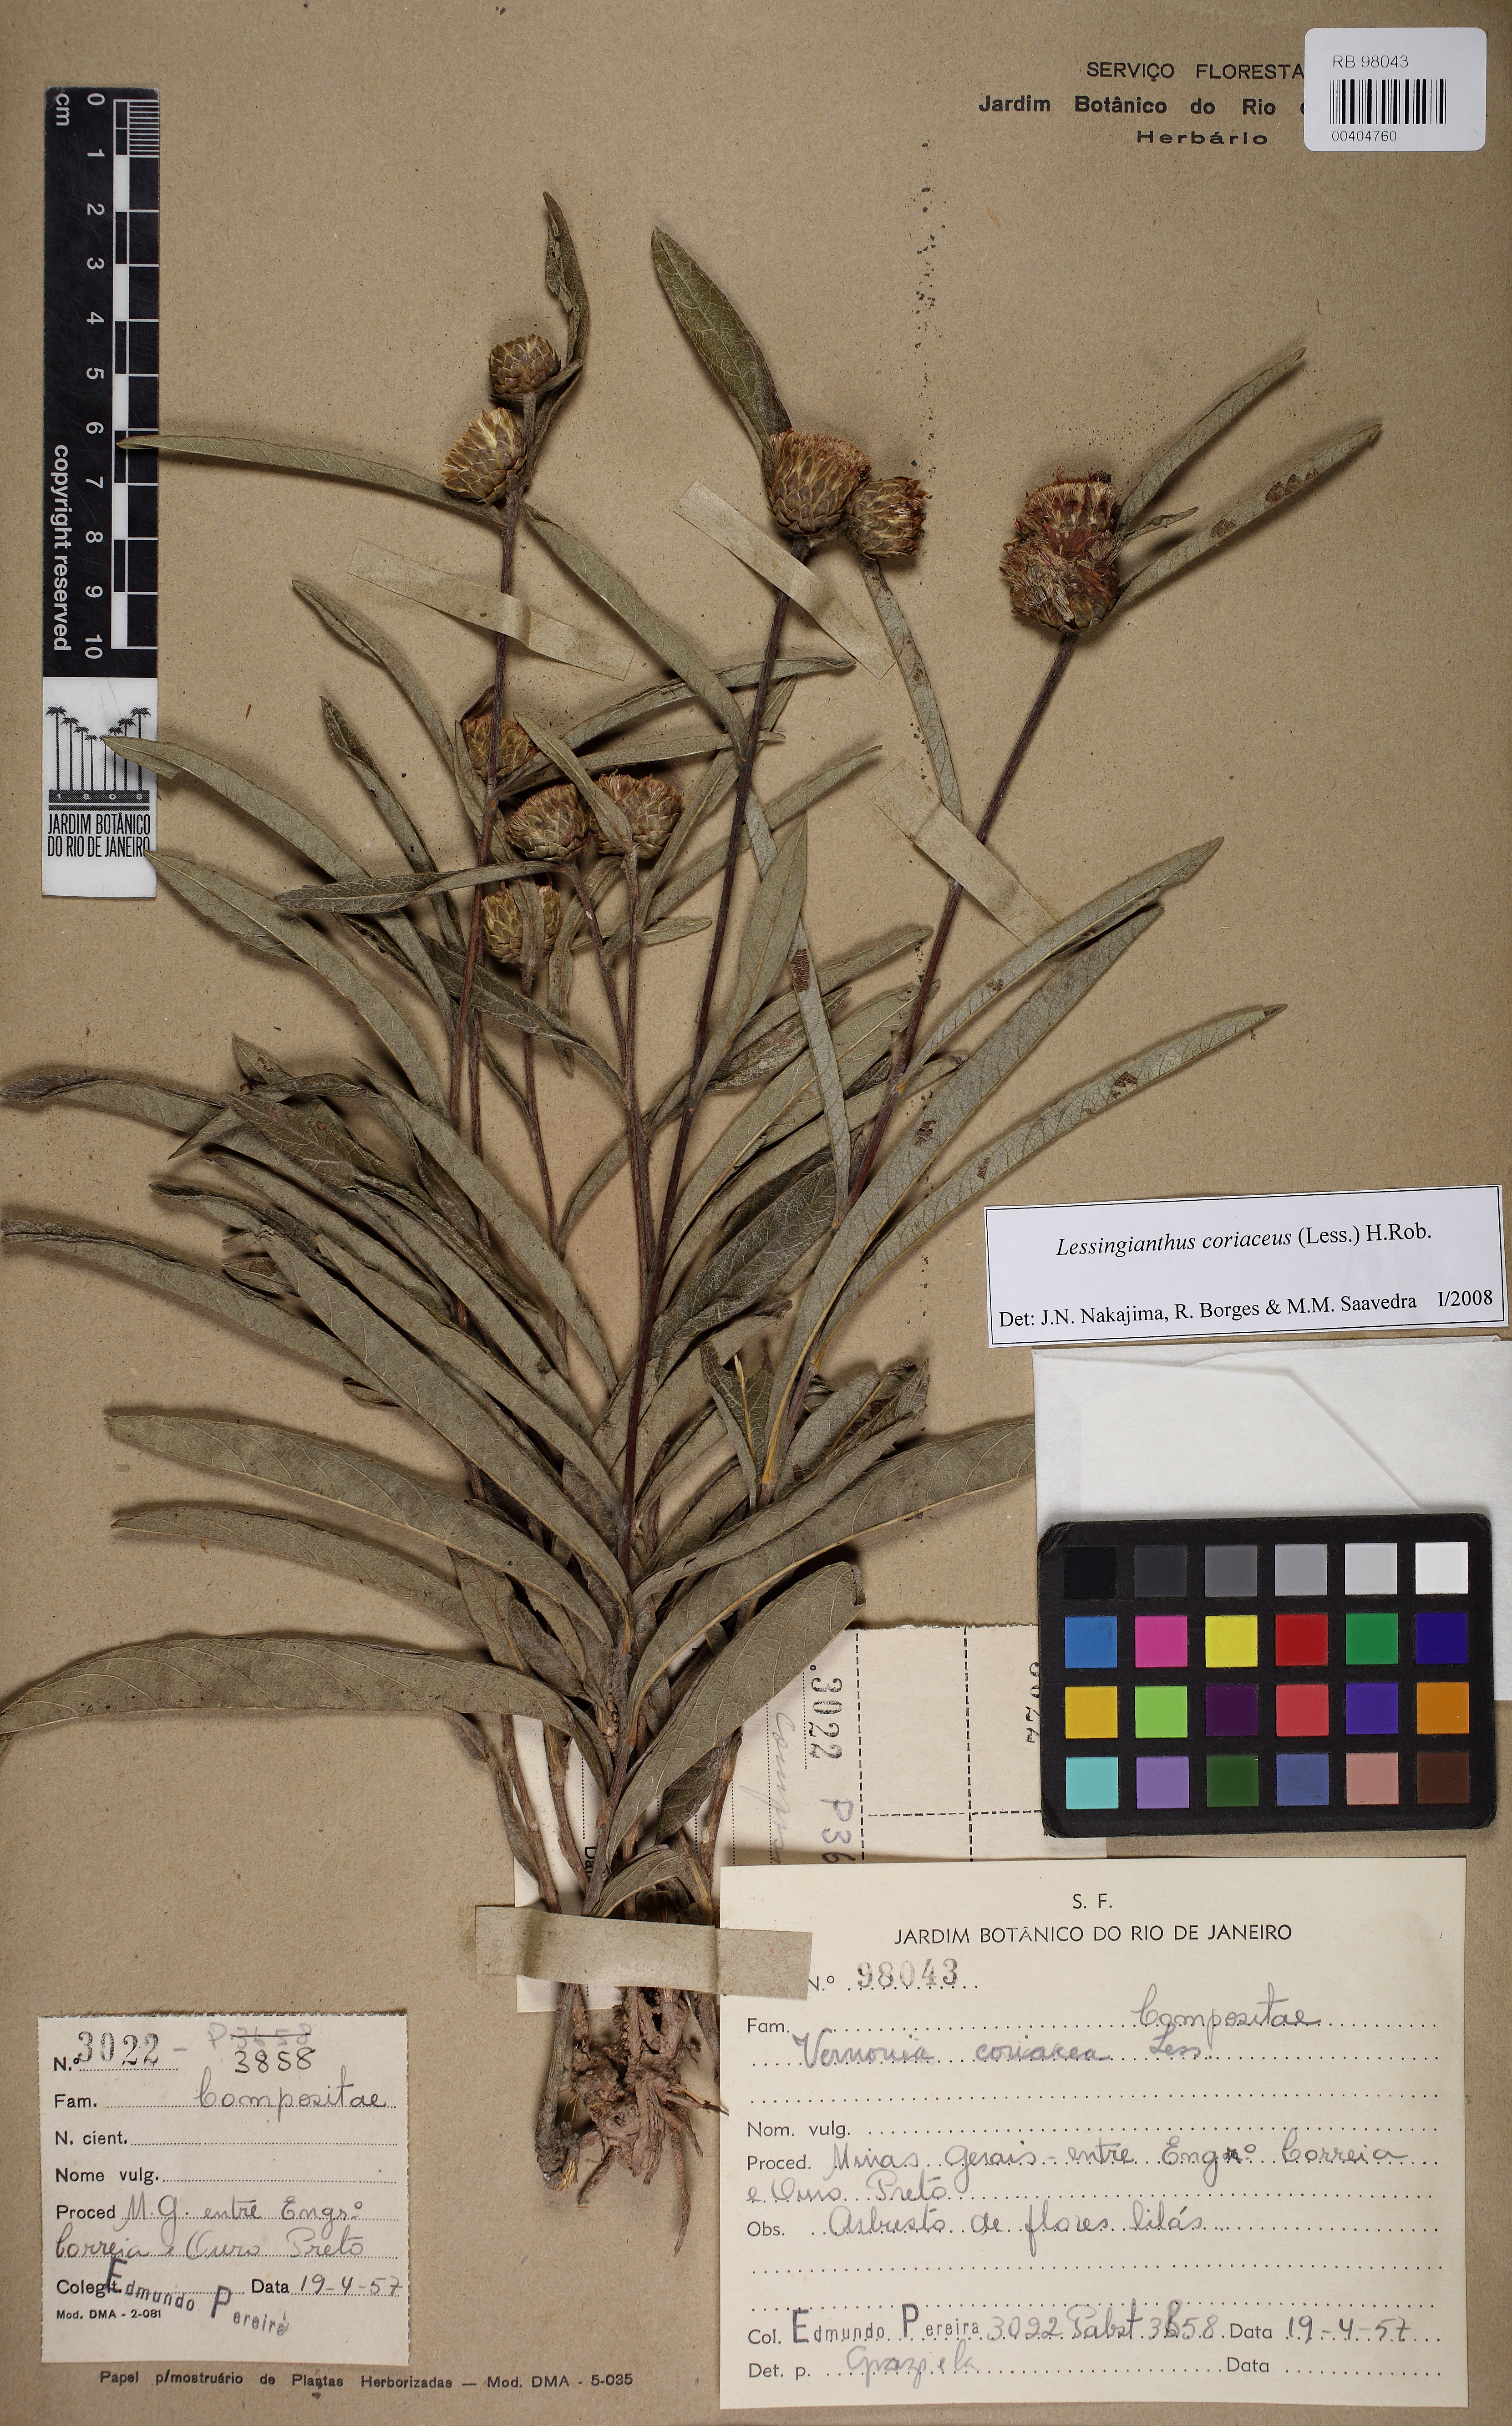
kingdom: Plantae
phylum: Tracheophyta
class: Magnoliopsida
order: Asterales
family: Asteraceae
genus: Lessingianthus
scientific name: Lessingianthus coriaceus
